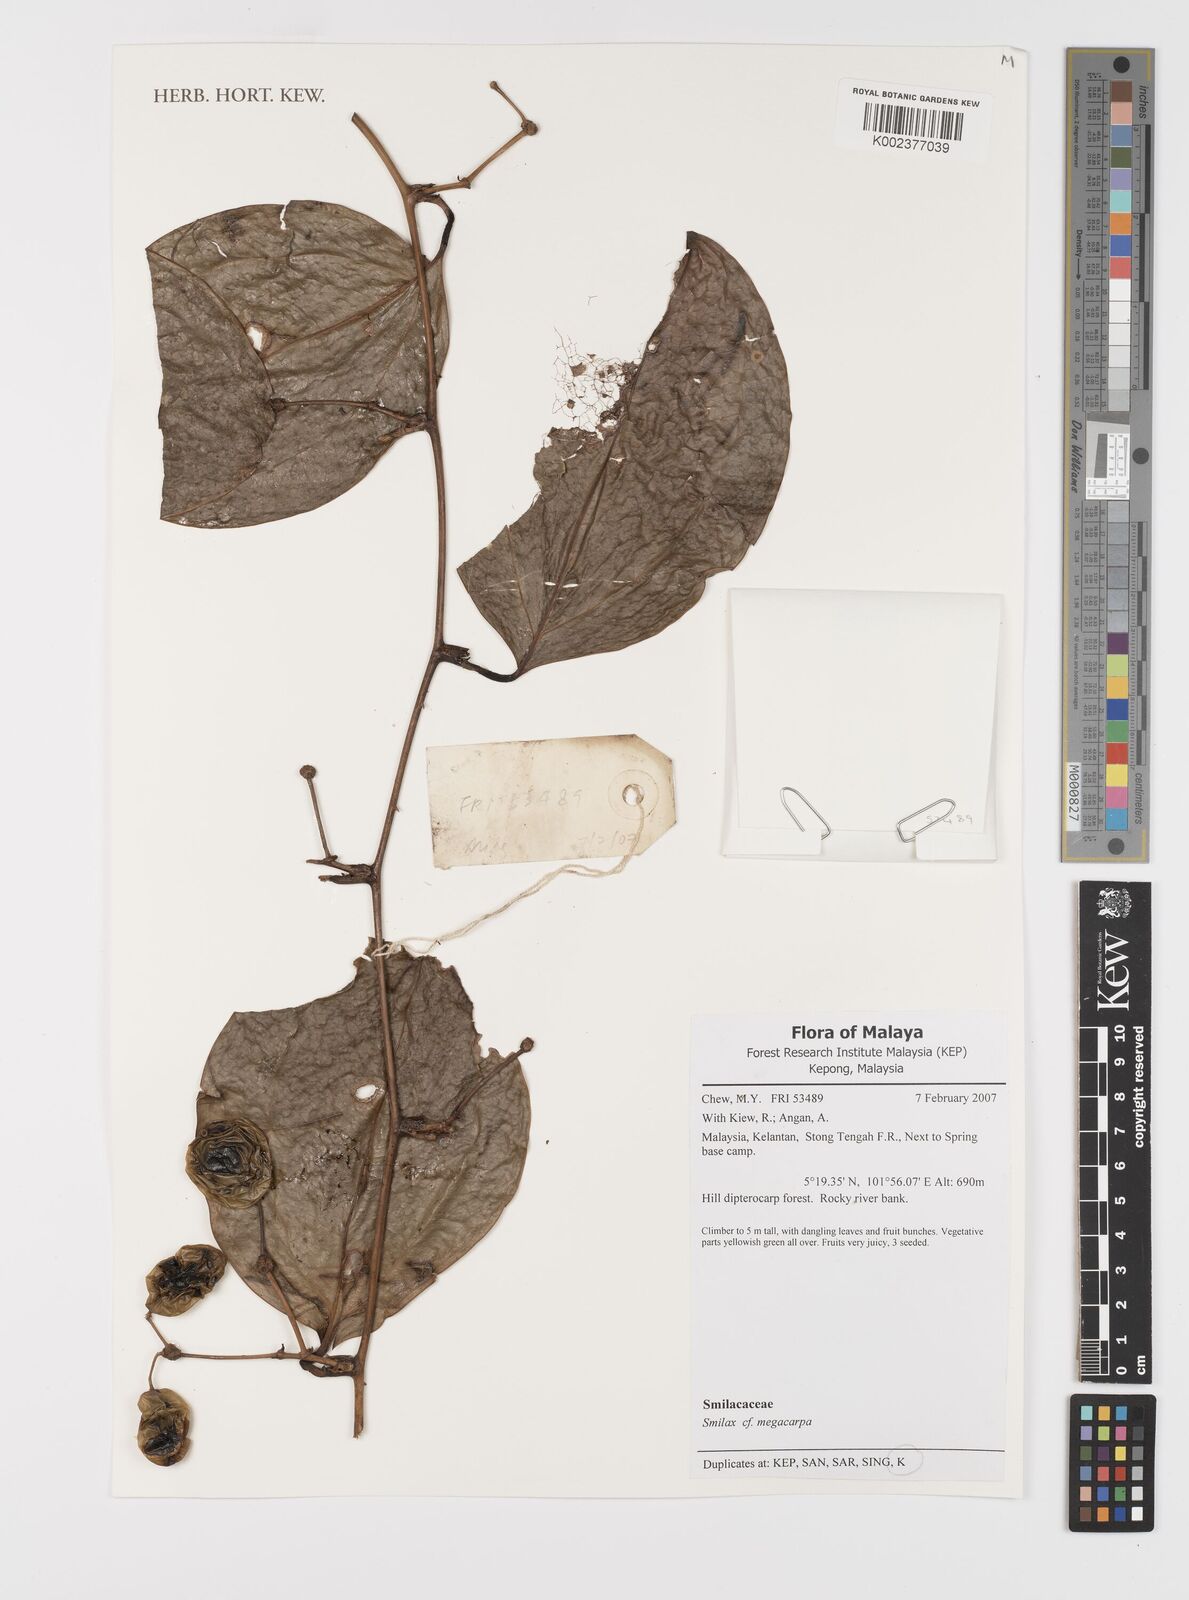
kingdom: Plantae
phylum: Tracheophyta
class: Liliopsida
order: Liliales
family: Smilacaceae
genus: Smilax
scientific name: Smilax megacarpa
